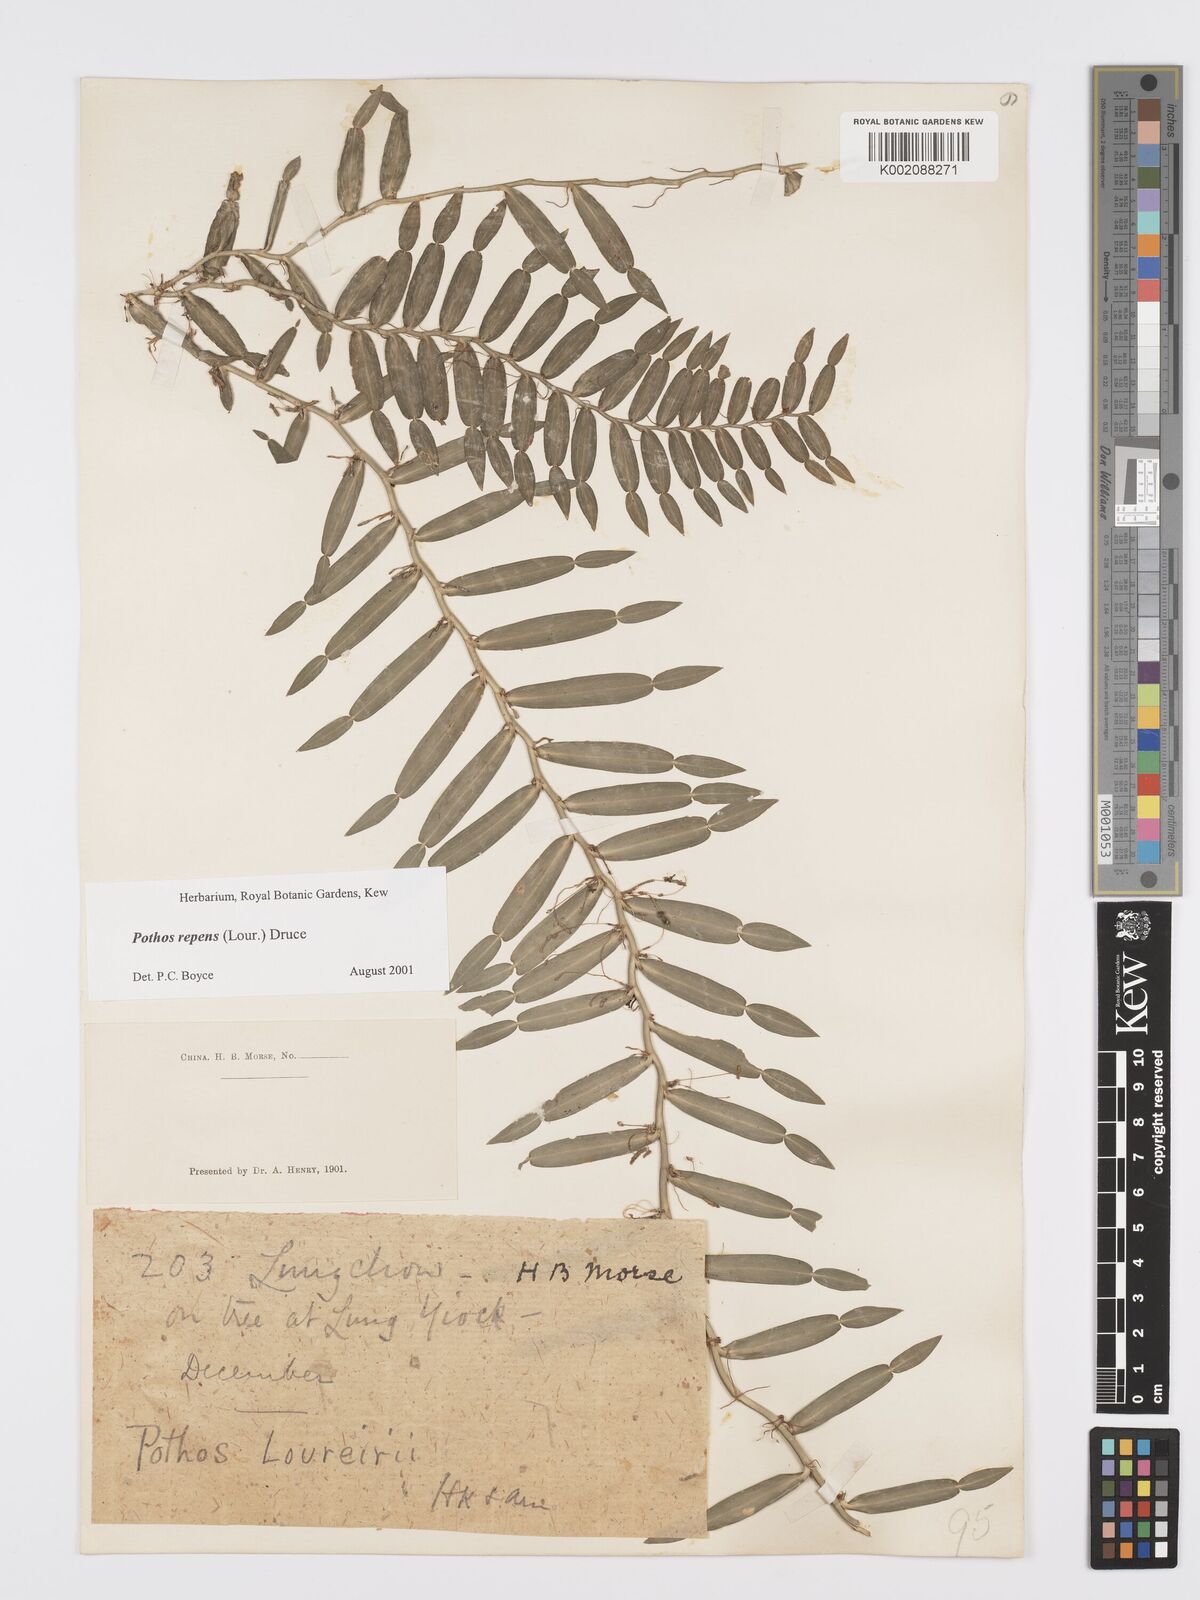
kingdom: Plantae
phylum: Tracheophyta
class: Liliopsida
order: Alismatales
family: Araceae
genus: Pothos
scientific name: Pothos repens
